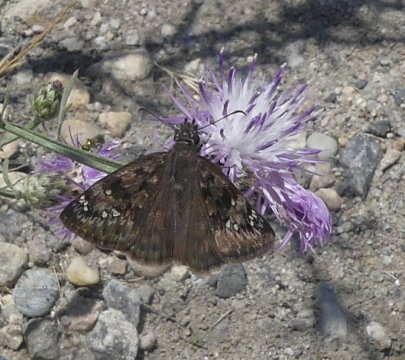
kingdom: Animalia
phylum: Arthropoda
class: Insecta
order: Lepidoptera
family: Hesperiidae
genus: Gesta
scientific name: Gesta
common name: Horace's Duskywing
